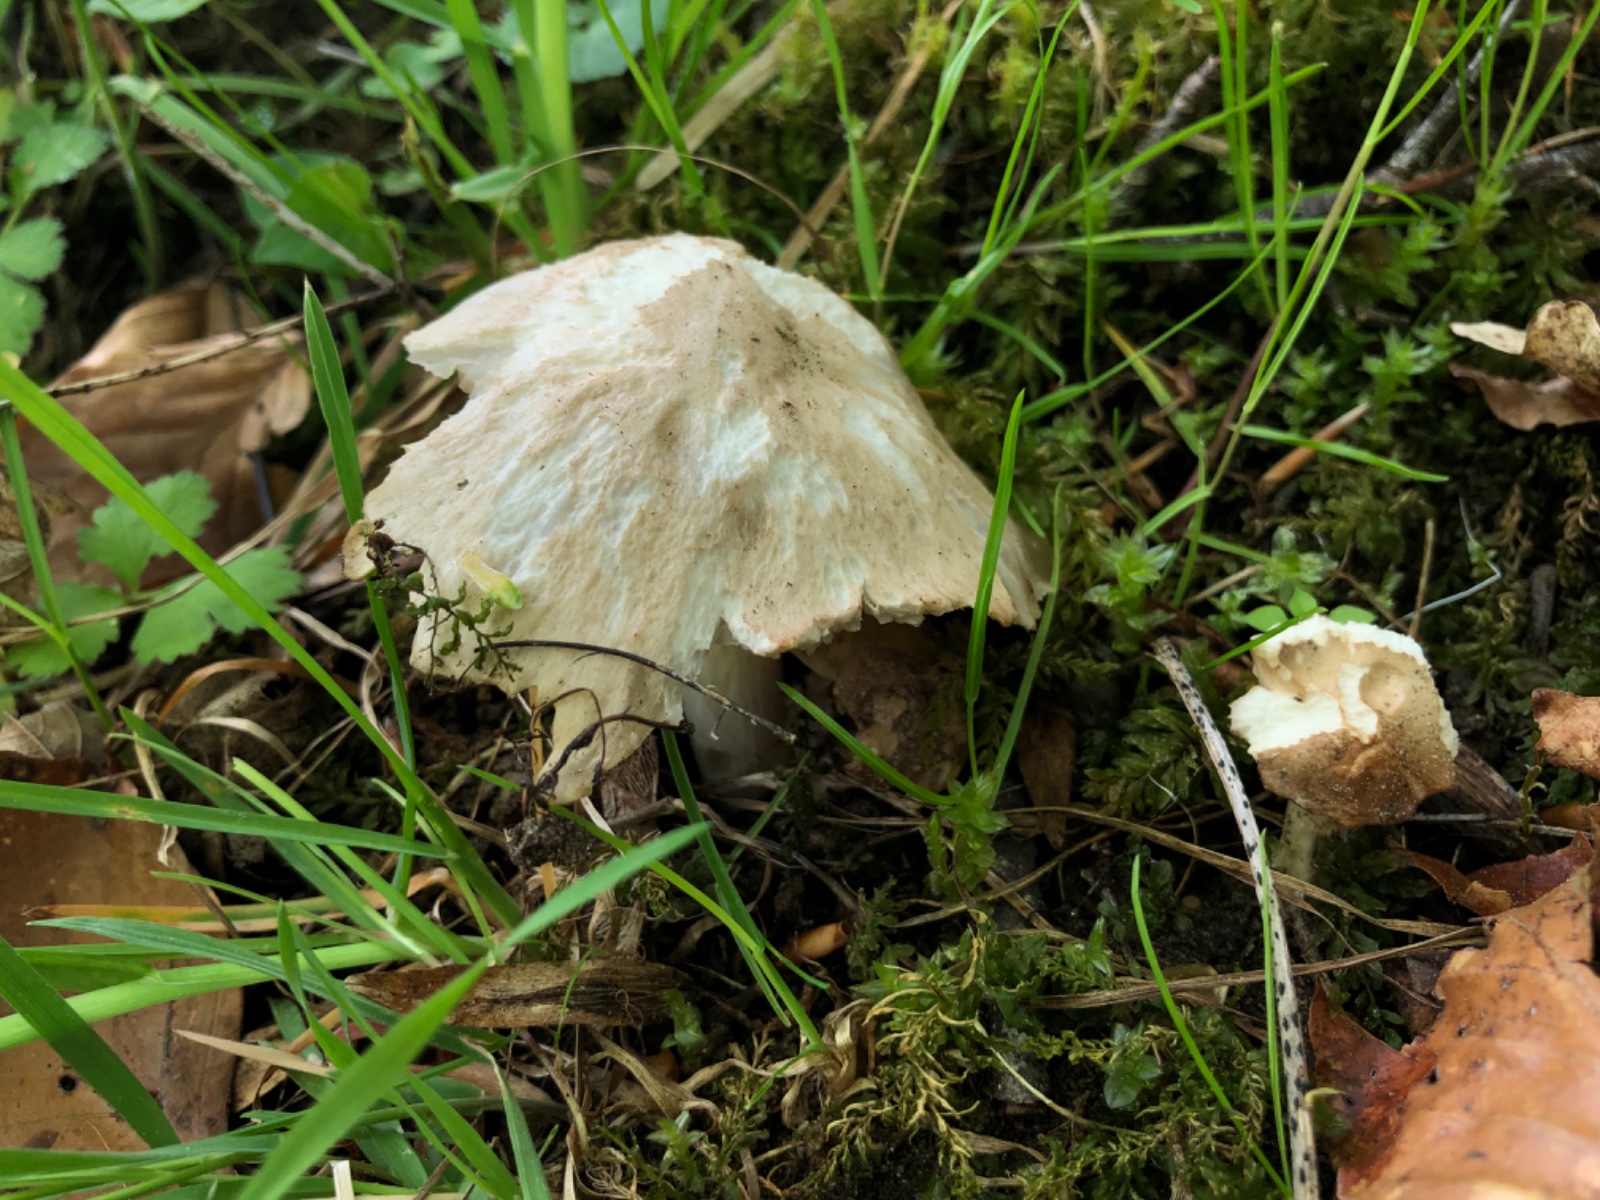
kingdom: Fungi
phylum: Basidiomycota
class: Agaricomycetes
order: Agaricales
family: Entolomataceae
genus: Entoloma
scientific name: Entoloma
